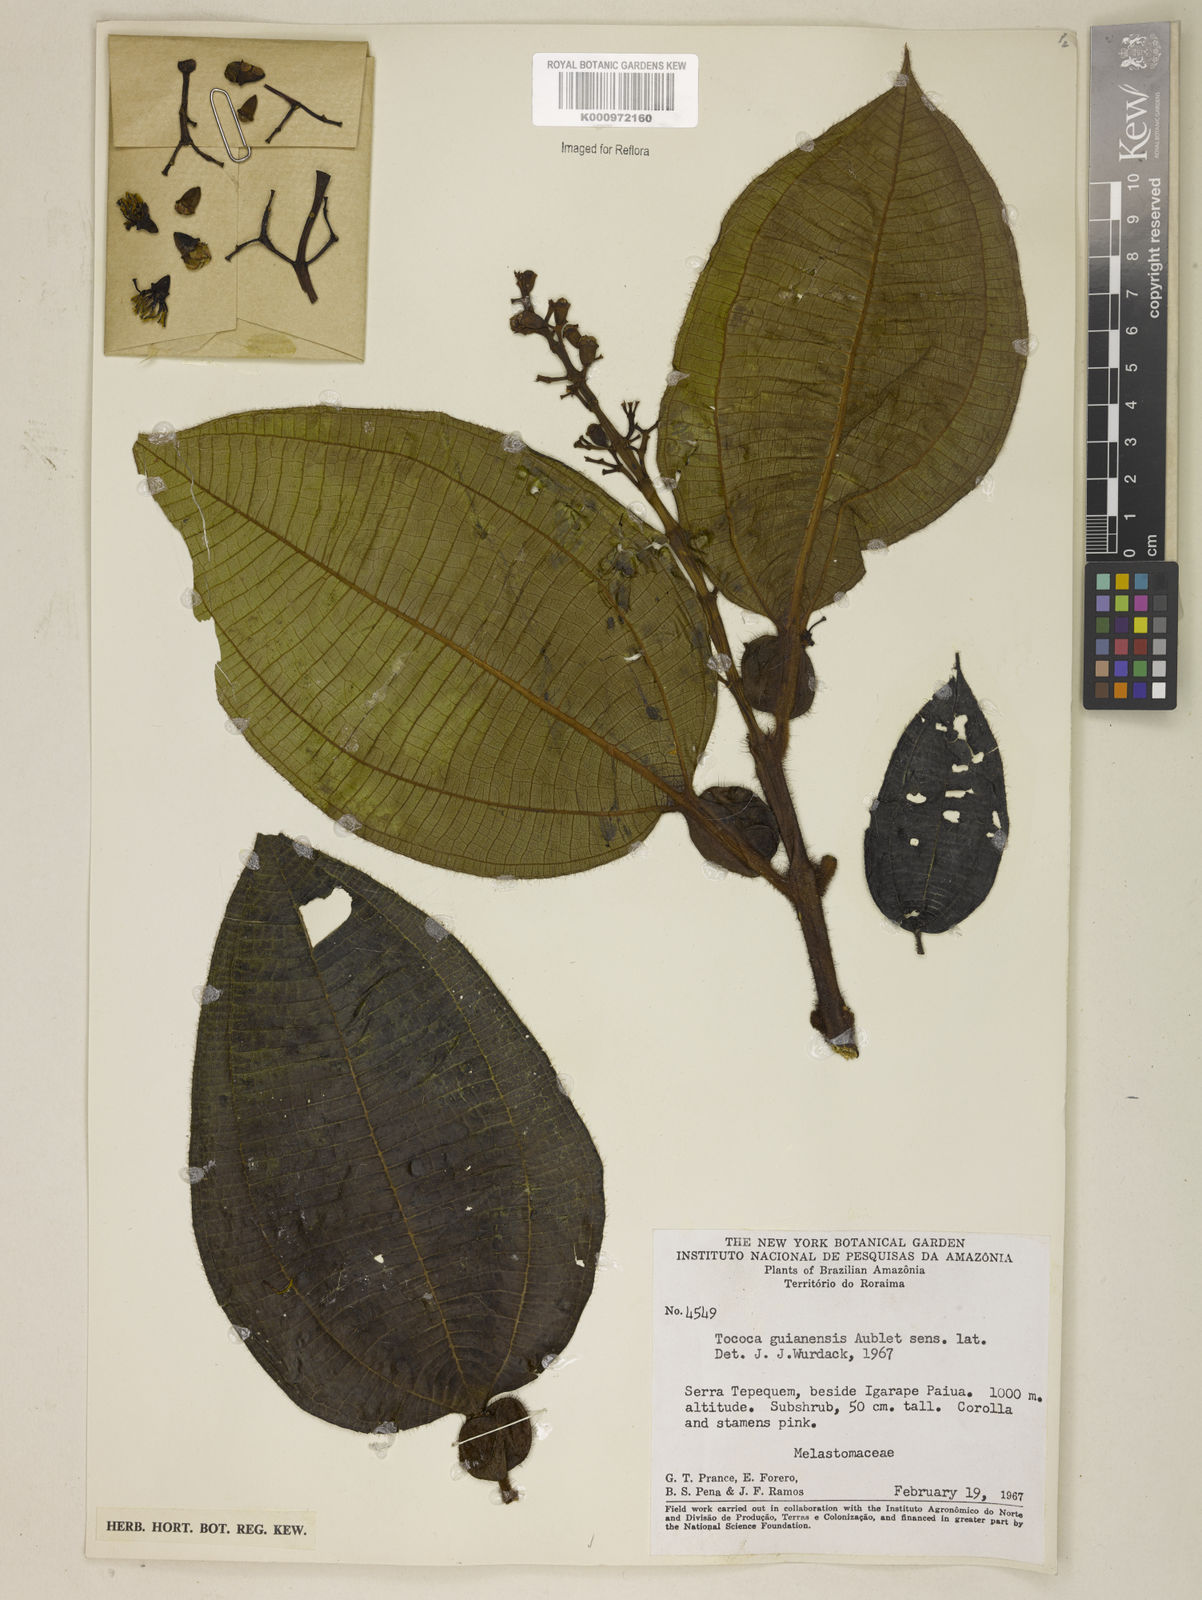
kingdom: Plantae
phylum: Tracheophyta
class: Magnoliopsida
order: Myrtales
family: Melastomataceae
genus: Miconia
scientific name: Miconia tococa
